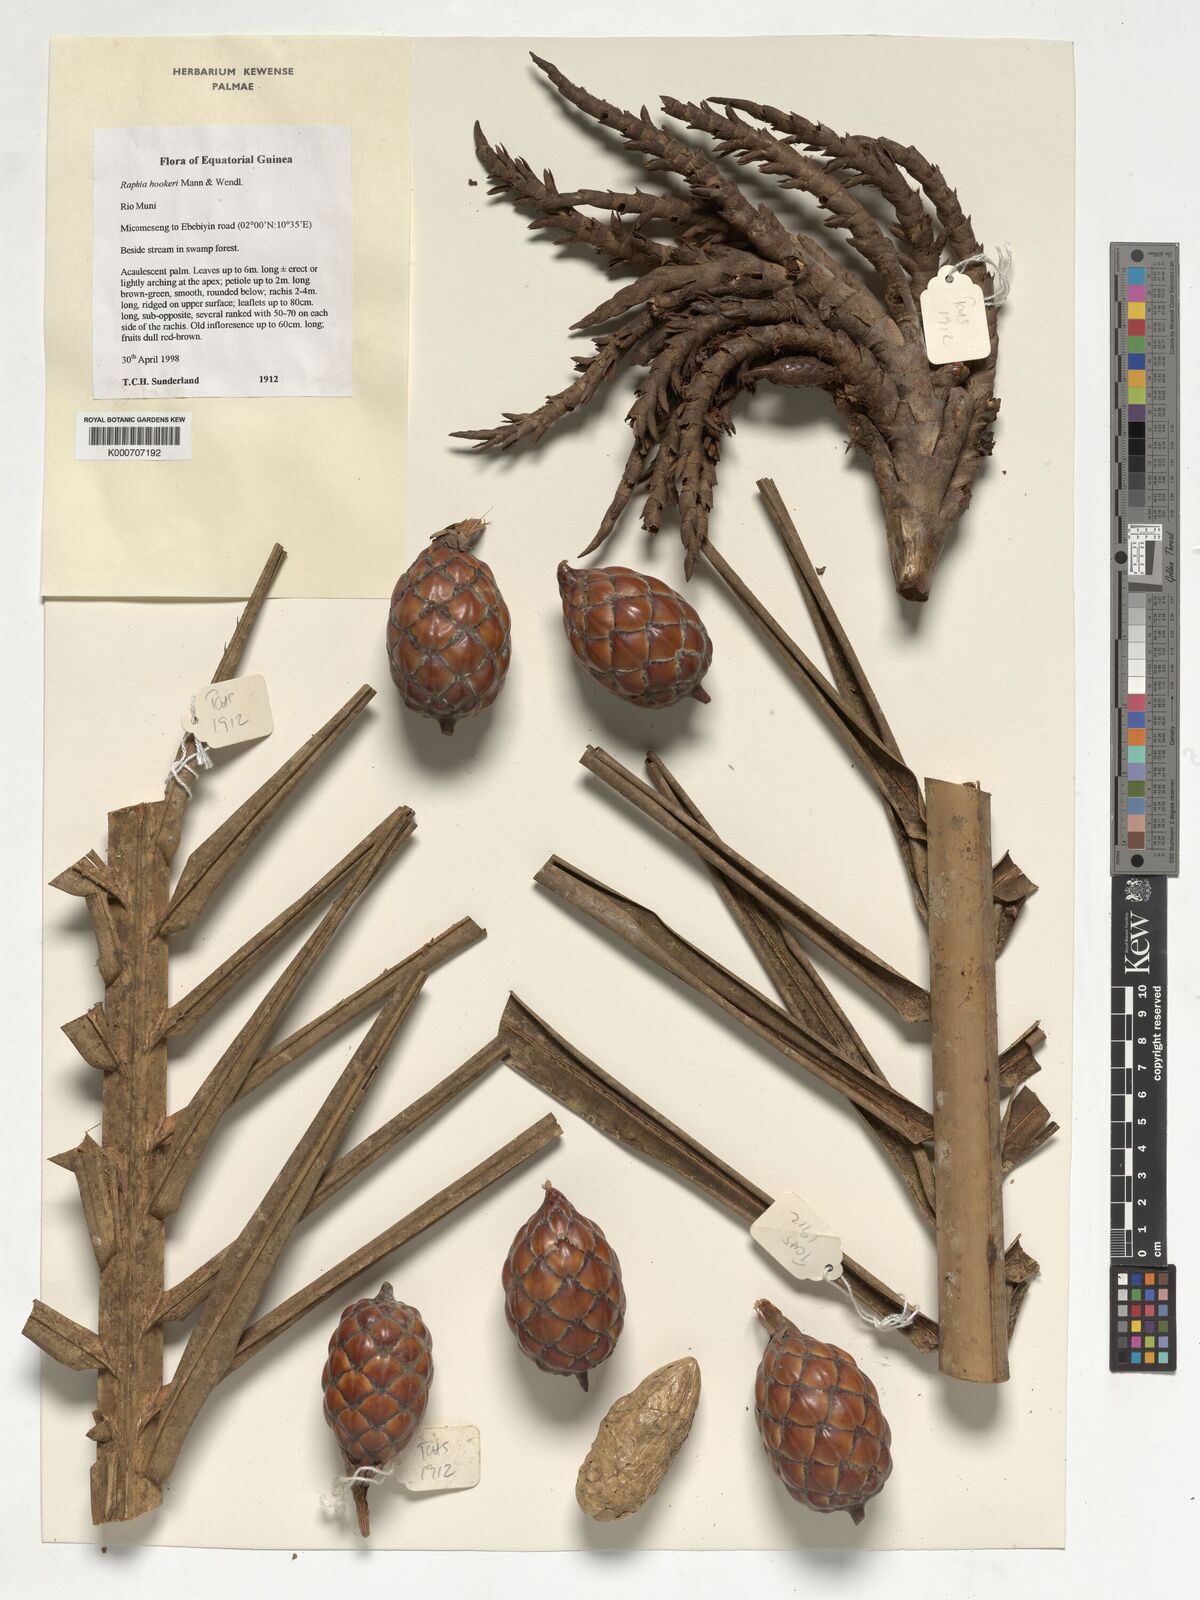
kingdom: Plantae
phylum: Tracheophyta
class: Liliopsida
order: Arecales
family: Arecaceae
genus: Raphia
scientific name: Raphia hookeri
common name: Wine palm
